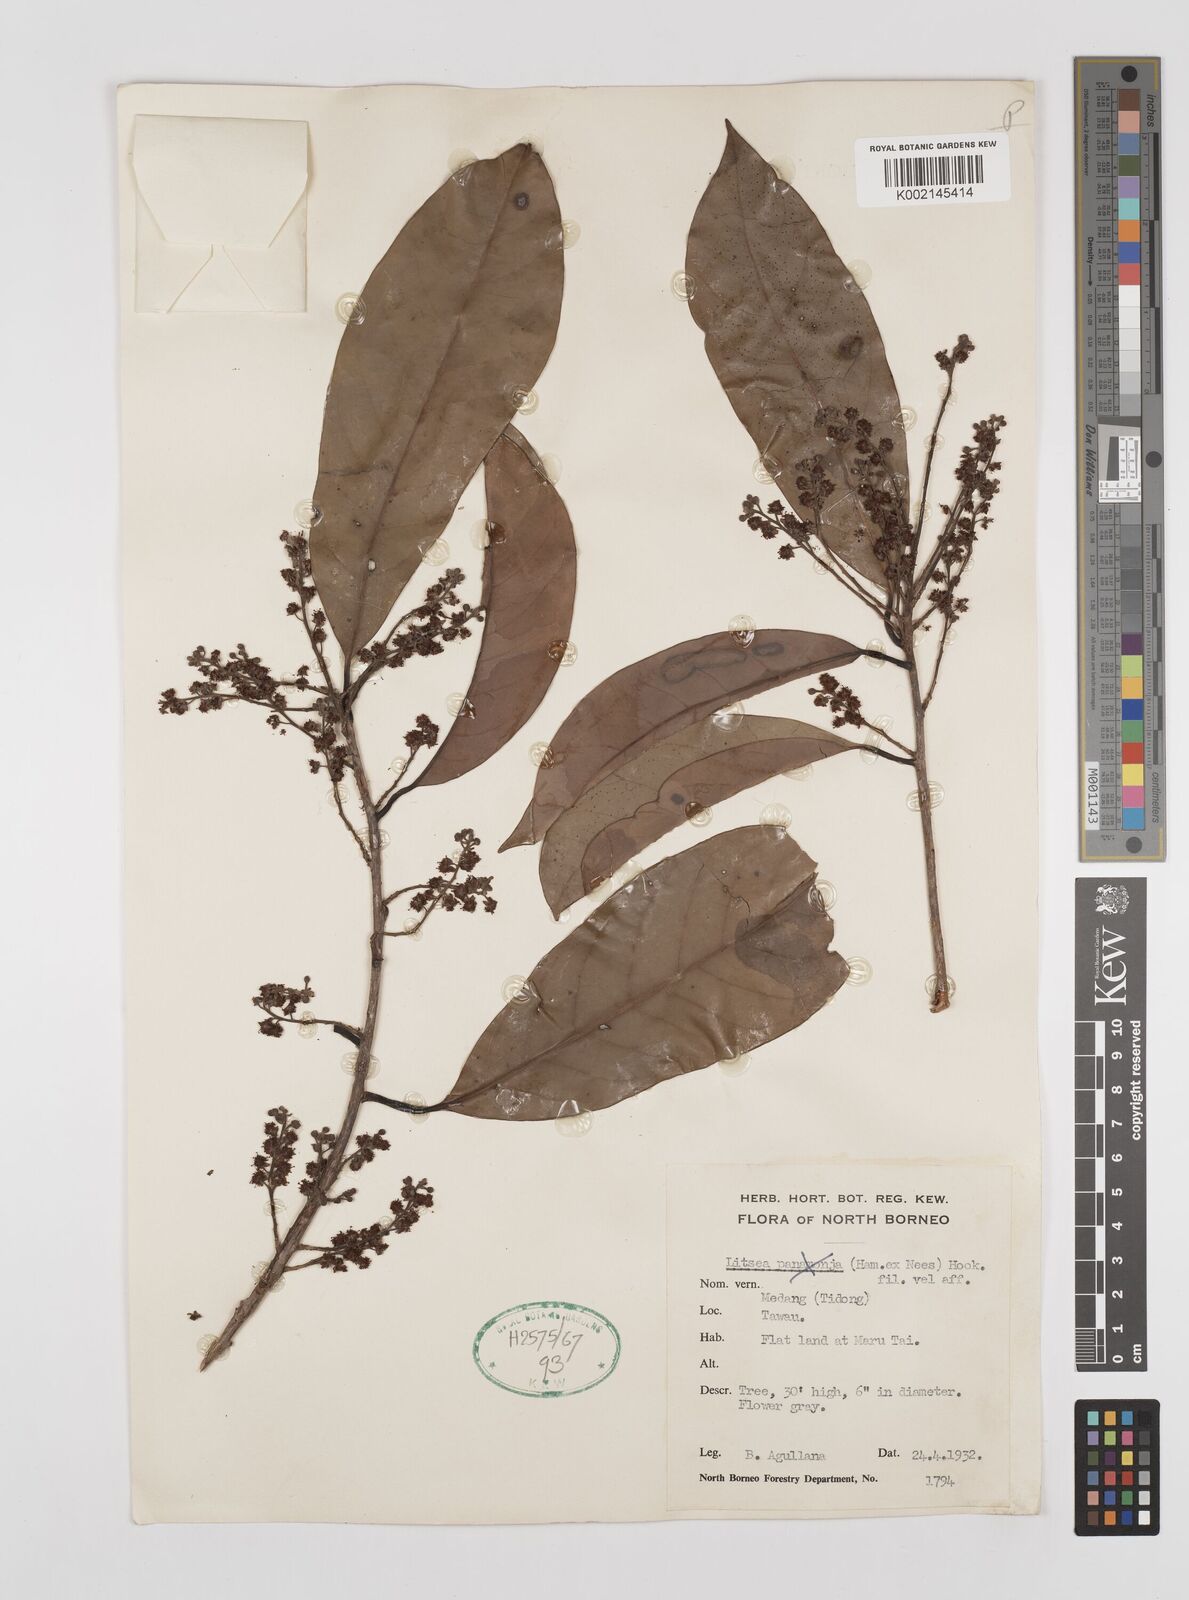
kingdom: Plantae
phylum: Tracheophyta
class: Magnoliopsida
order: Laurales
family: Lauraceae
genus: Litsea
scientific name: Litsea
